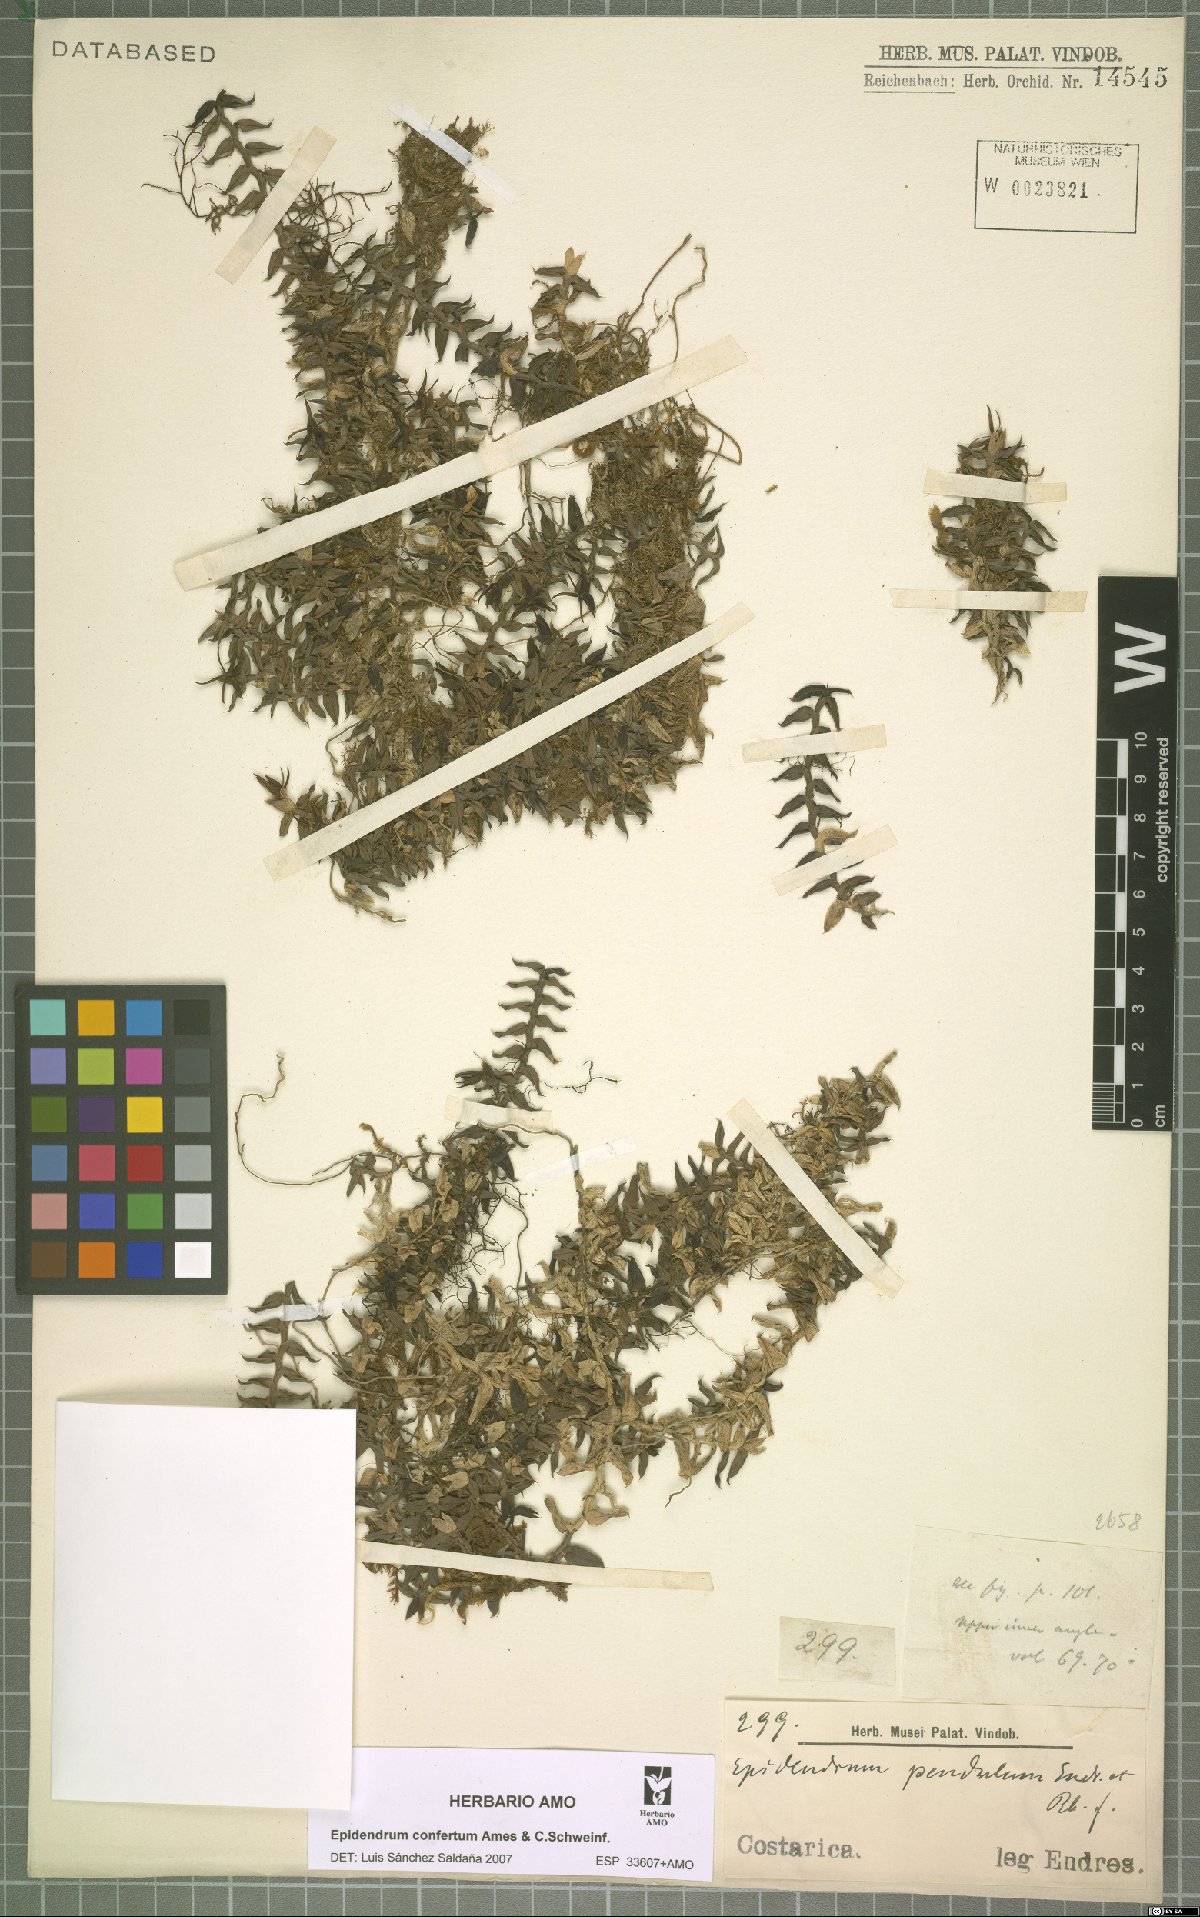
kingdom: Plantae
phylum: Tracheophyta
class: Liliopsida
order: Asparagales
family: Orchidaceae
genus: Epidendrum
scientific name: Epidendrum confertum
